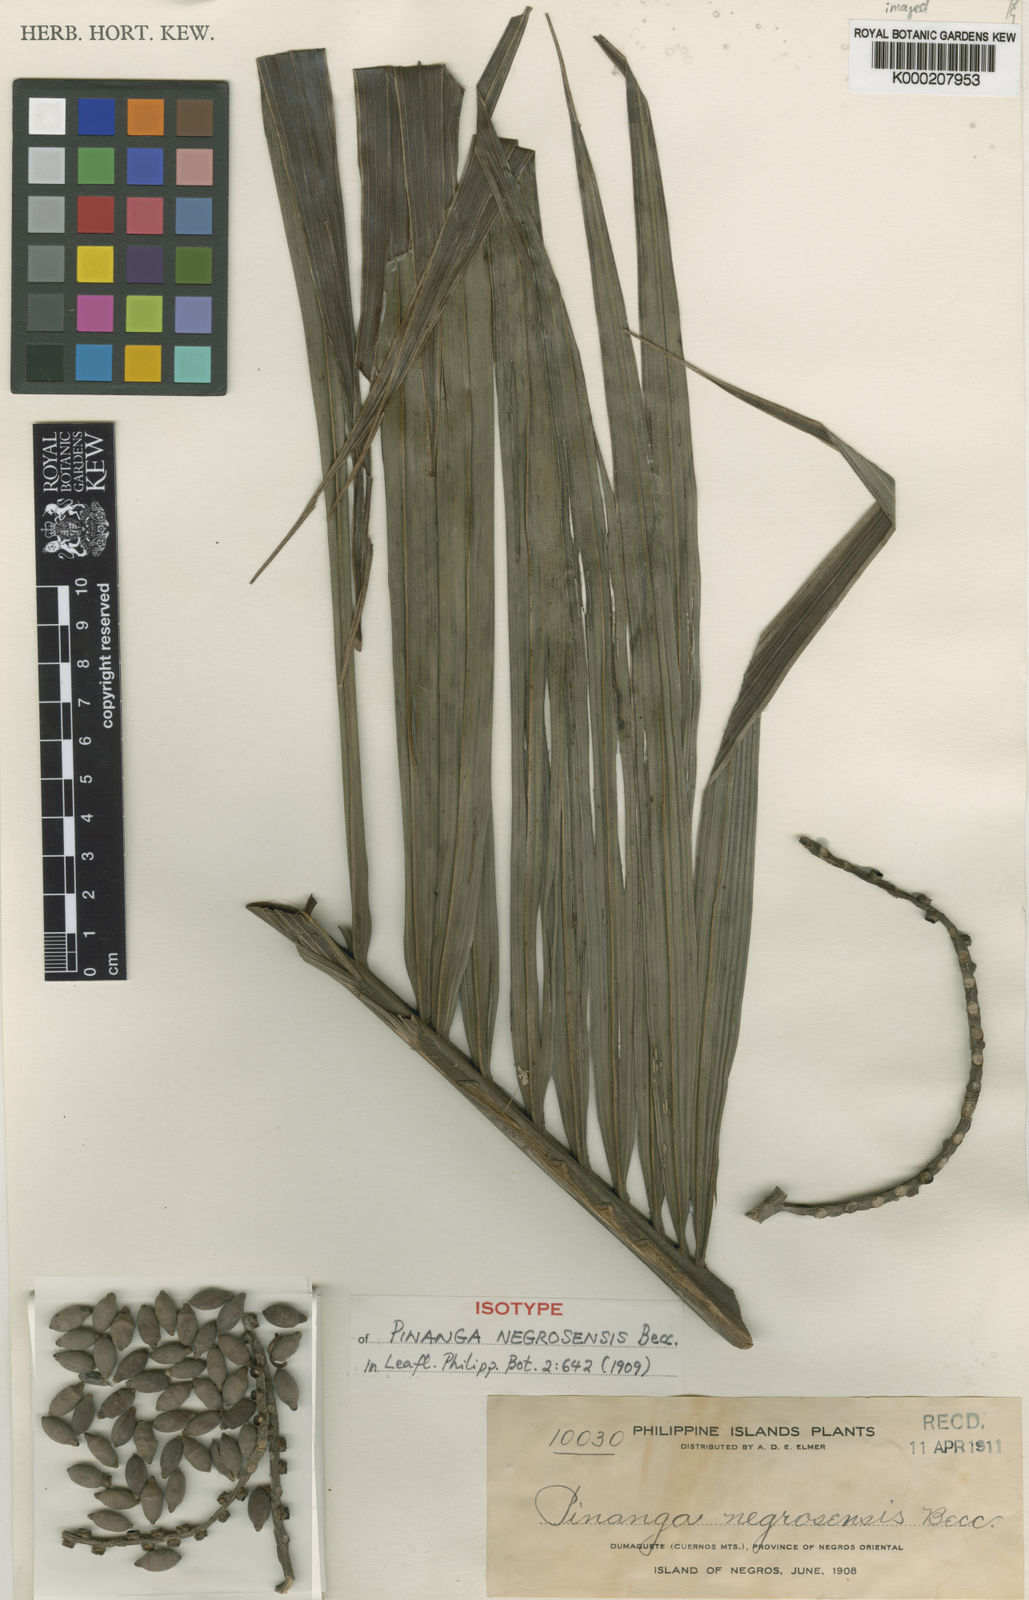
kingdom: Plantae
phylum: Tracheophyta
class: Liliopsida
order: Arecales
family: Arecaceae
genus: Pinanga
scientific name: Pinanga negrosensis
